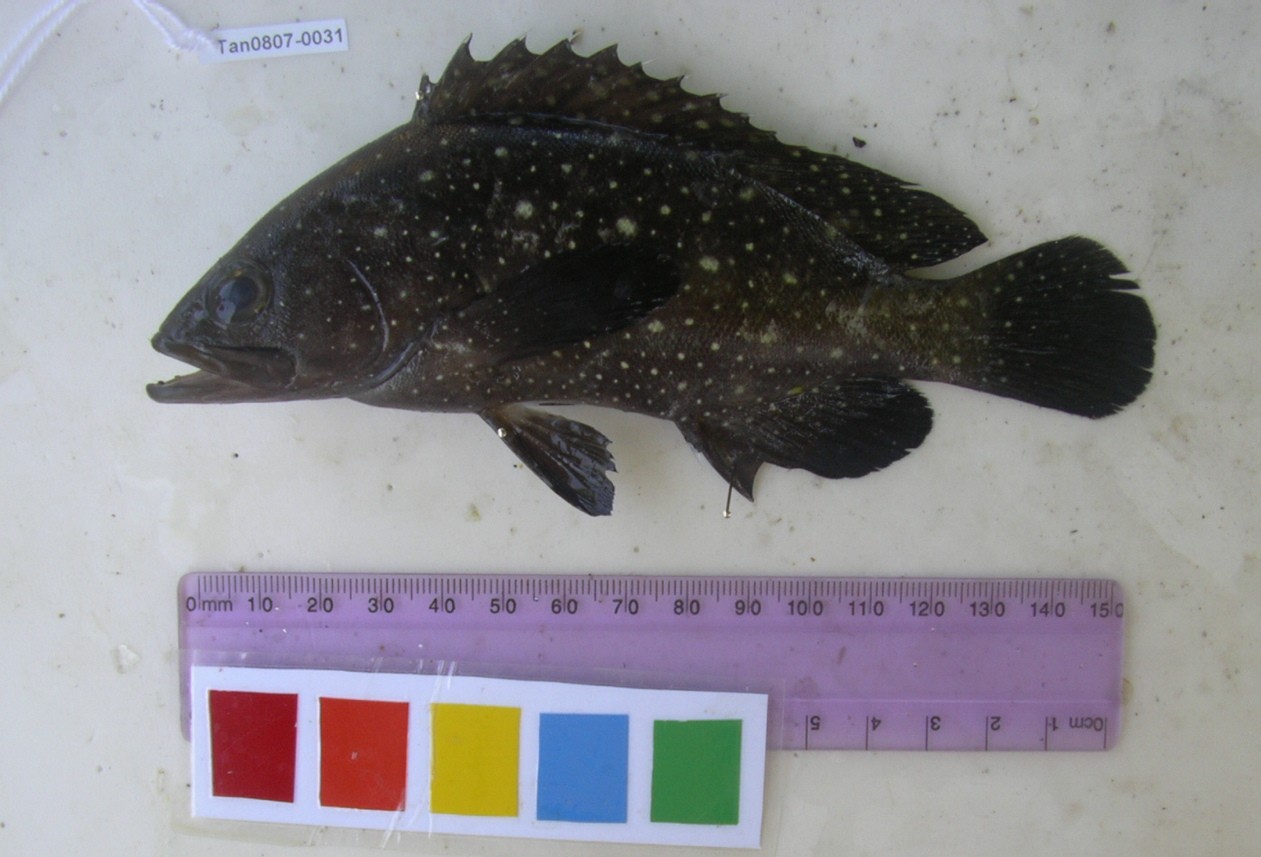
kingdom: Animalia
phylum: Chordata
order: Perciformes
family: Serranidae
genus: Epinephelus
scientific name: Epinephelus coeruleopunctatus
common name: Whitespotted grouper
